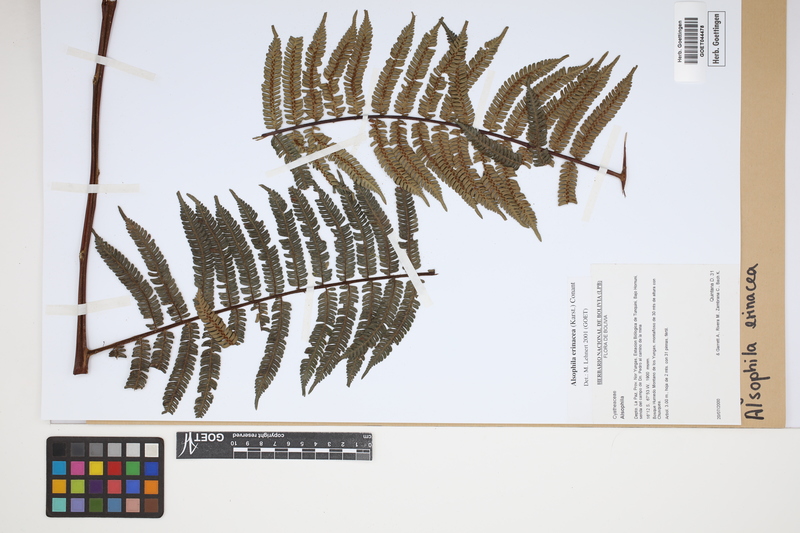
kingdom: Plantae
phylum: Tracheophyta
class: Polypodiopsida
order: Cyatheales
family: Cyatheaceae
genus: Alsophila
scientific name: Alsophila erinacea
